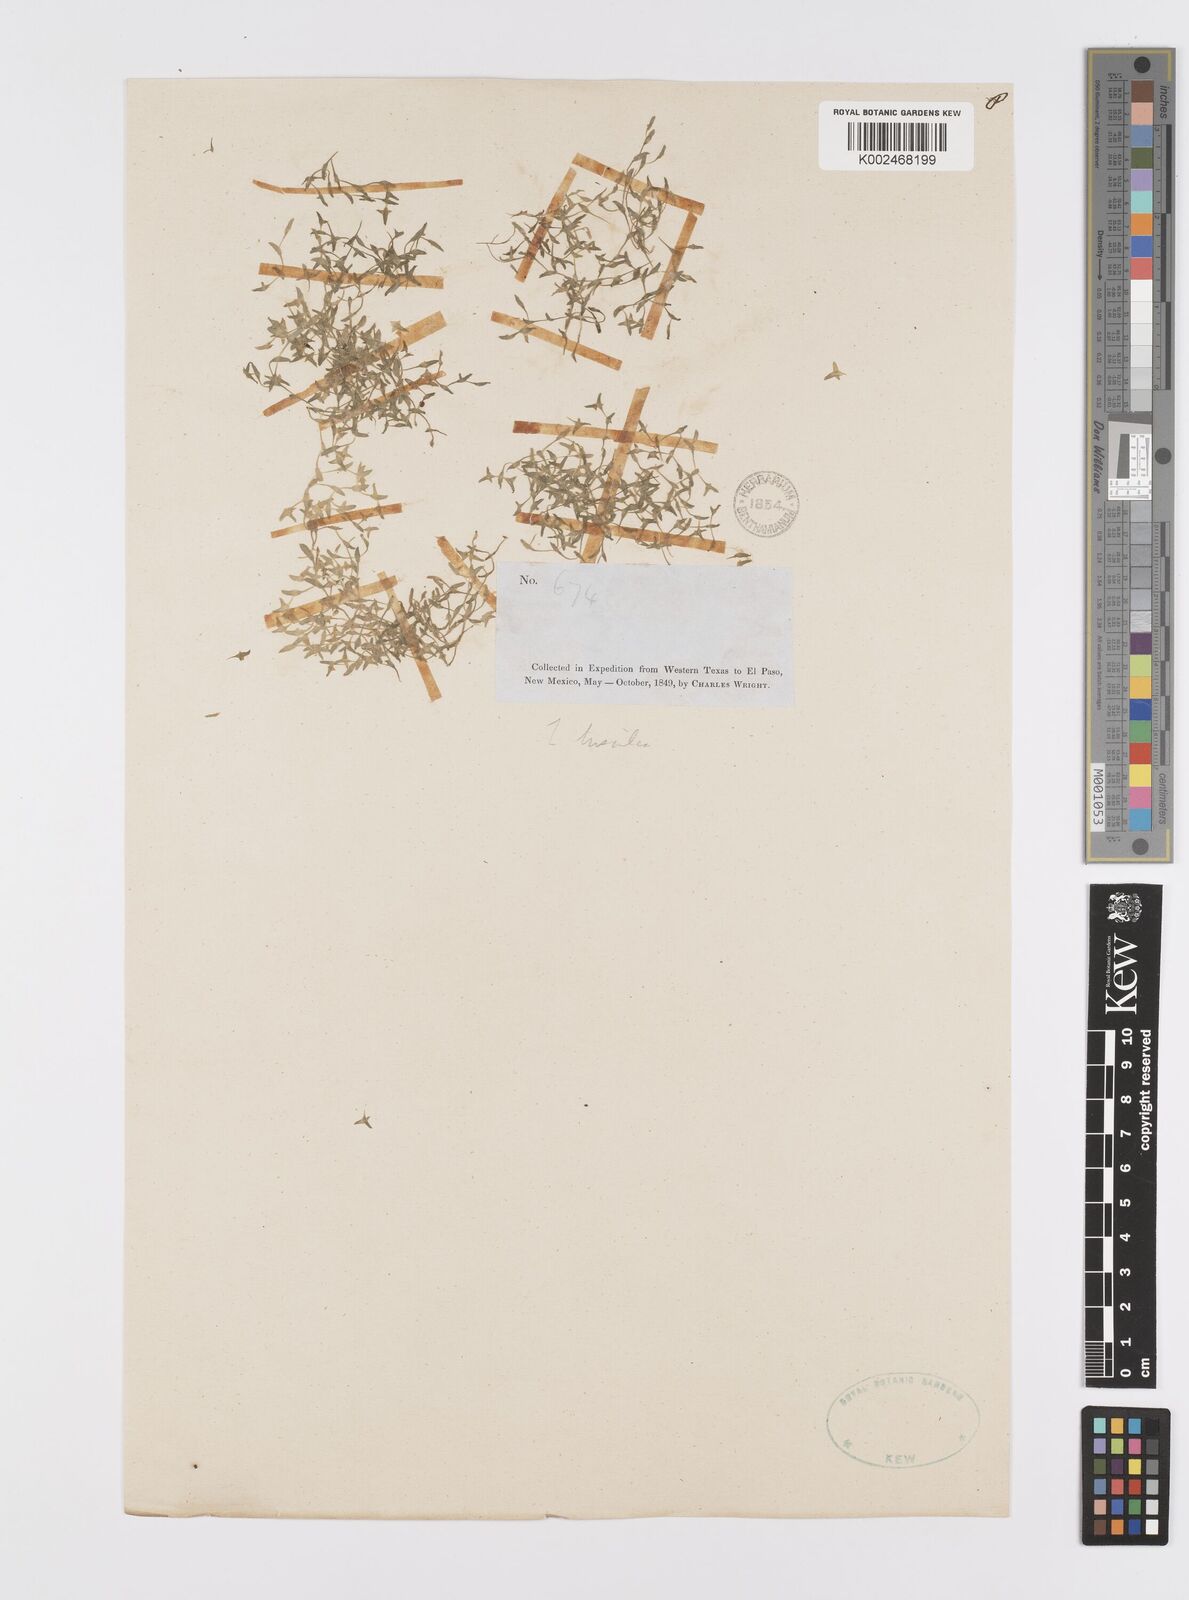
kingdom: Plantae
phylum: Tracheophyta
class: Liliopsida
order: Alismatales
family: Araceae
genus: Lemna
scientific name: Lemna trisulca
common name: Ivy-leaved duckweed
